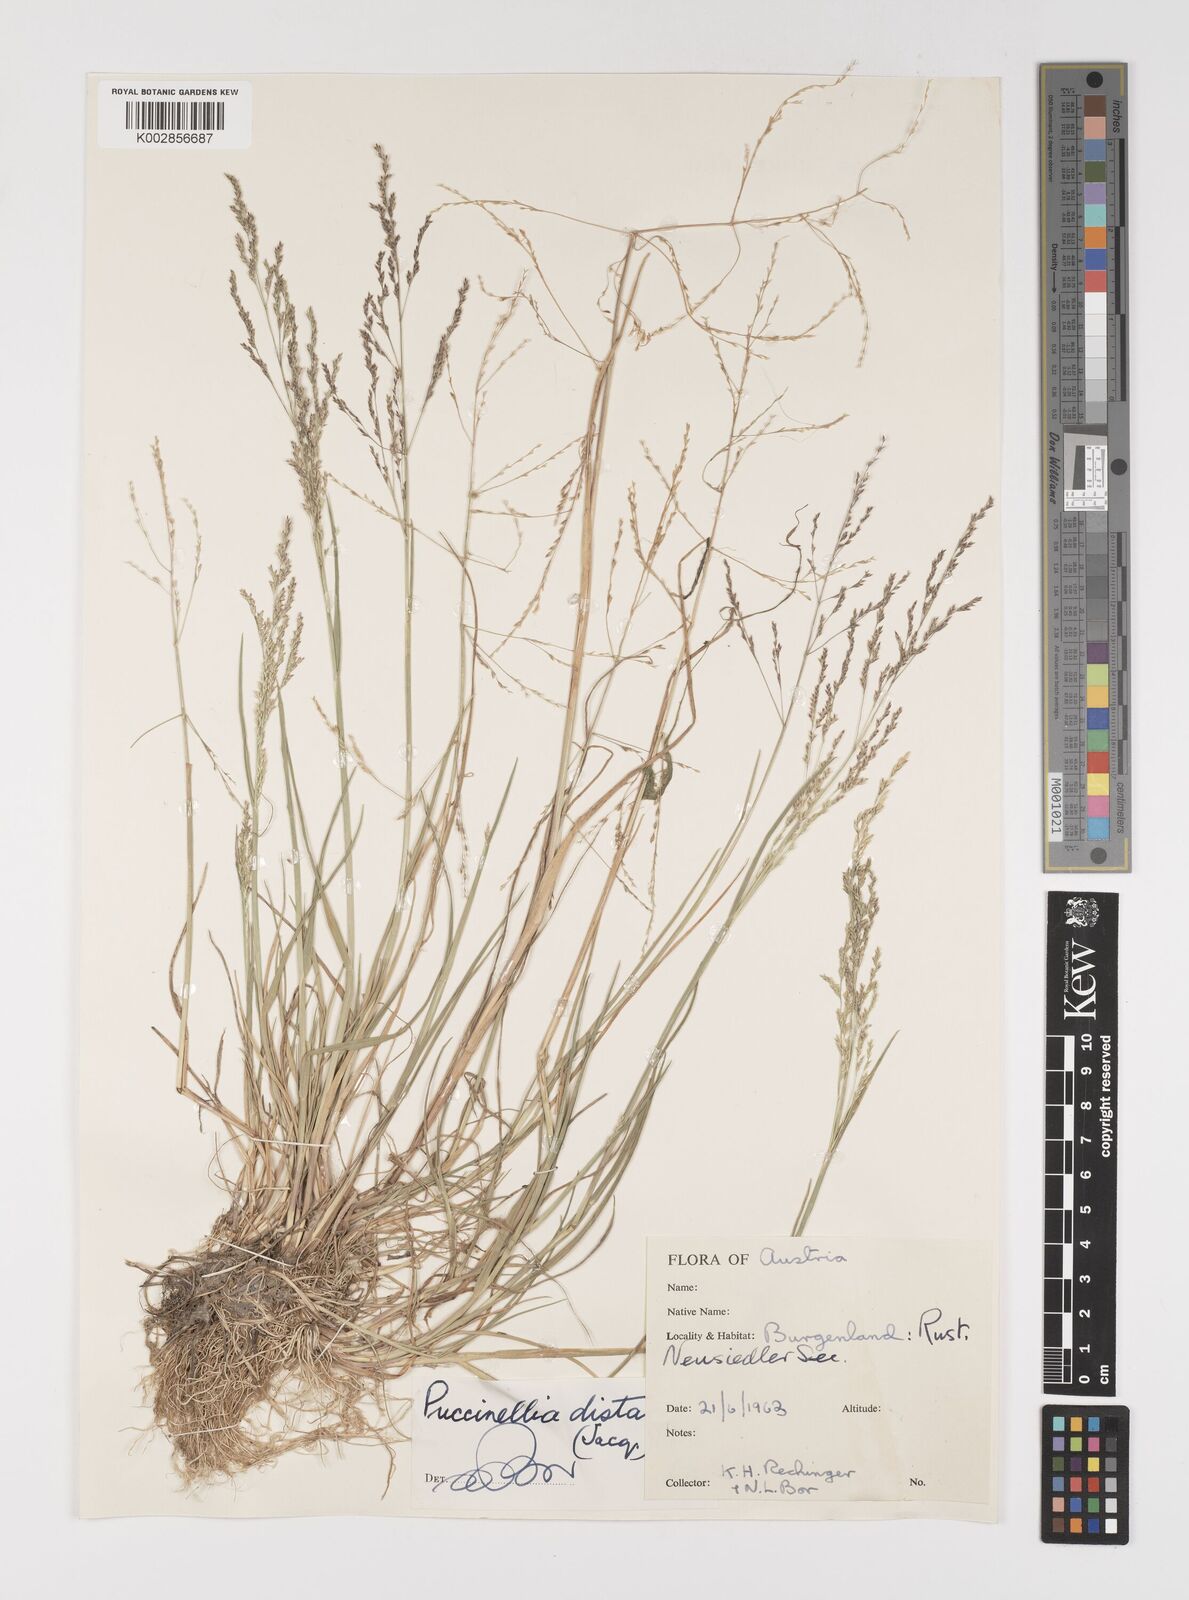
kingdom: Plantae
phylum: Tracheophyta
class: Liliopsida
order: Poales
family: Poaceae
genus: Puccinellia
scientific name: Puccinellia
